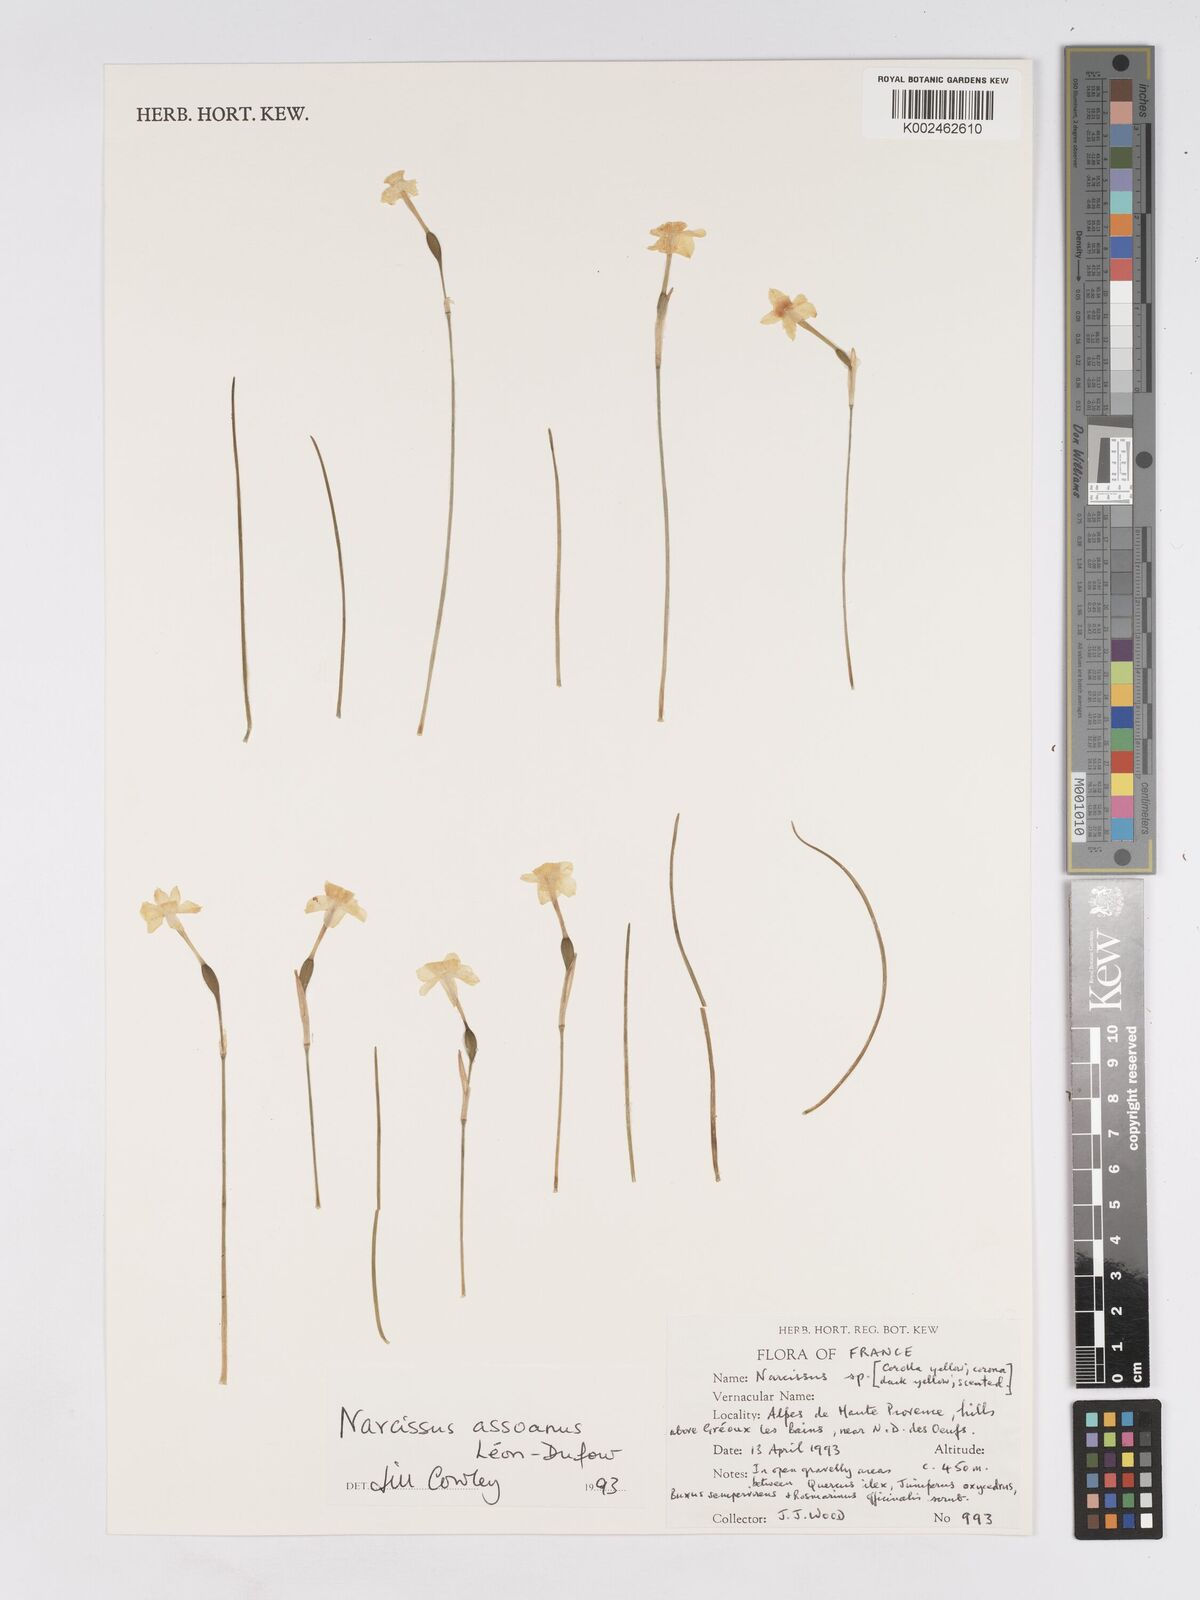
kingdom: Plantae
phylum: Tracheophyta
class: Liliopsida
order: Asparagales
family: Amaryllidaceae
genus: Narcissus
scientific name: Narcissus assoanus
